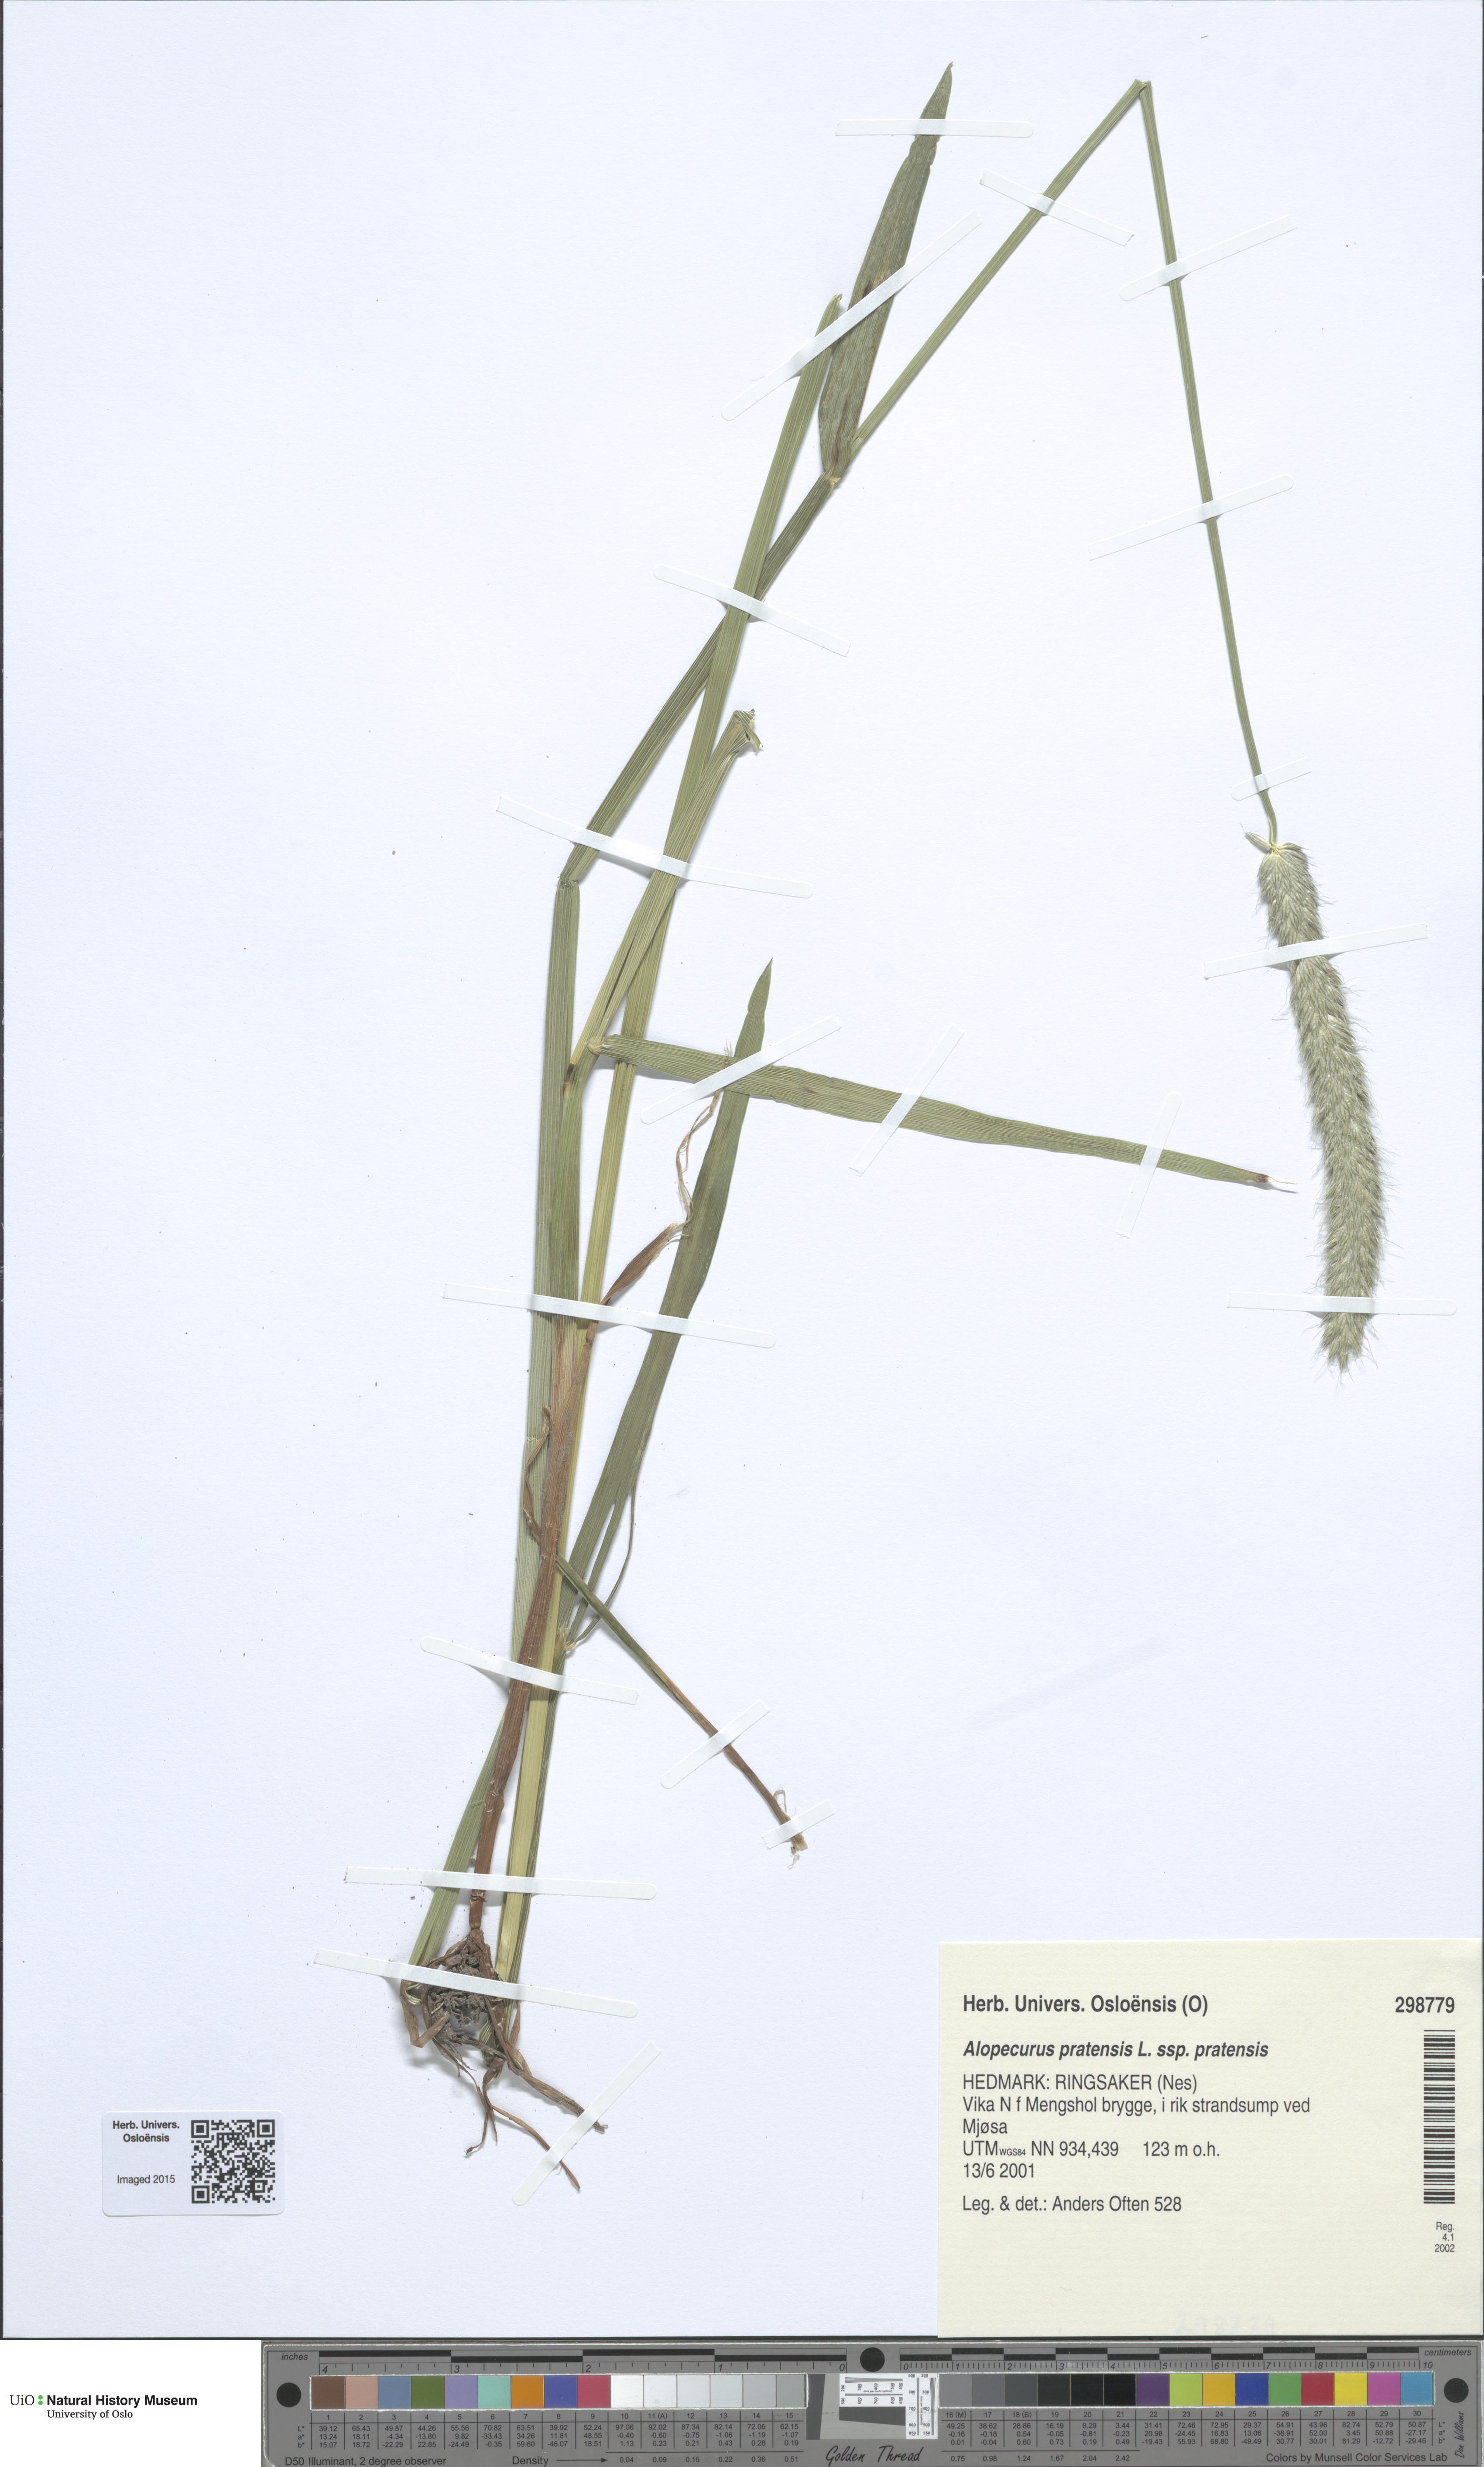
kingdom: Plantae
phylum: Tracheophyta
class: Liliopsida
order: Poales
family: Poaceae
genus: Alopecurus
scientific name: Alopecurus pratensis
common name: Meadow foxtail
